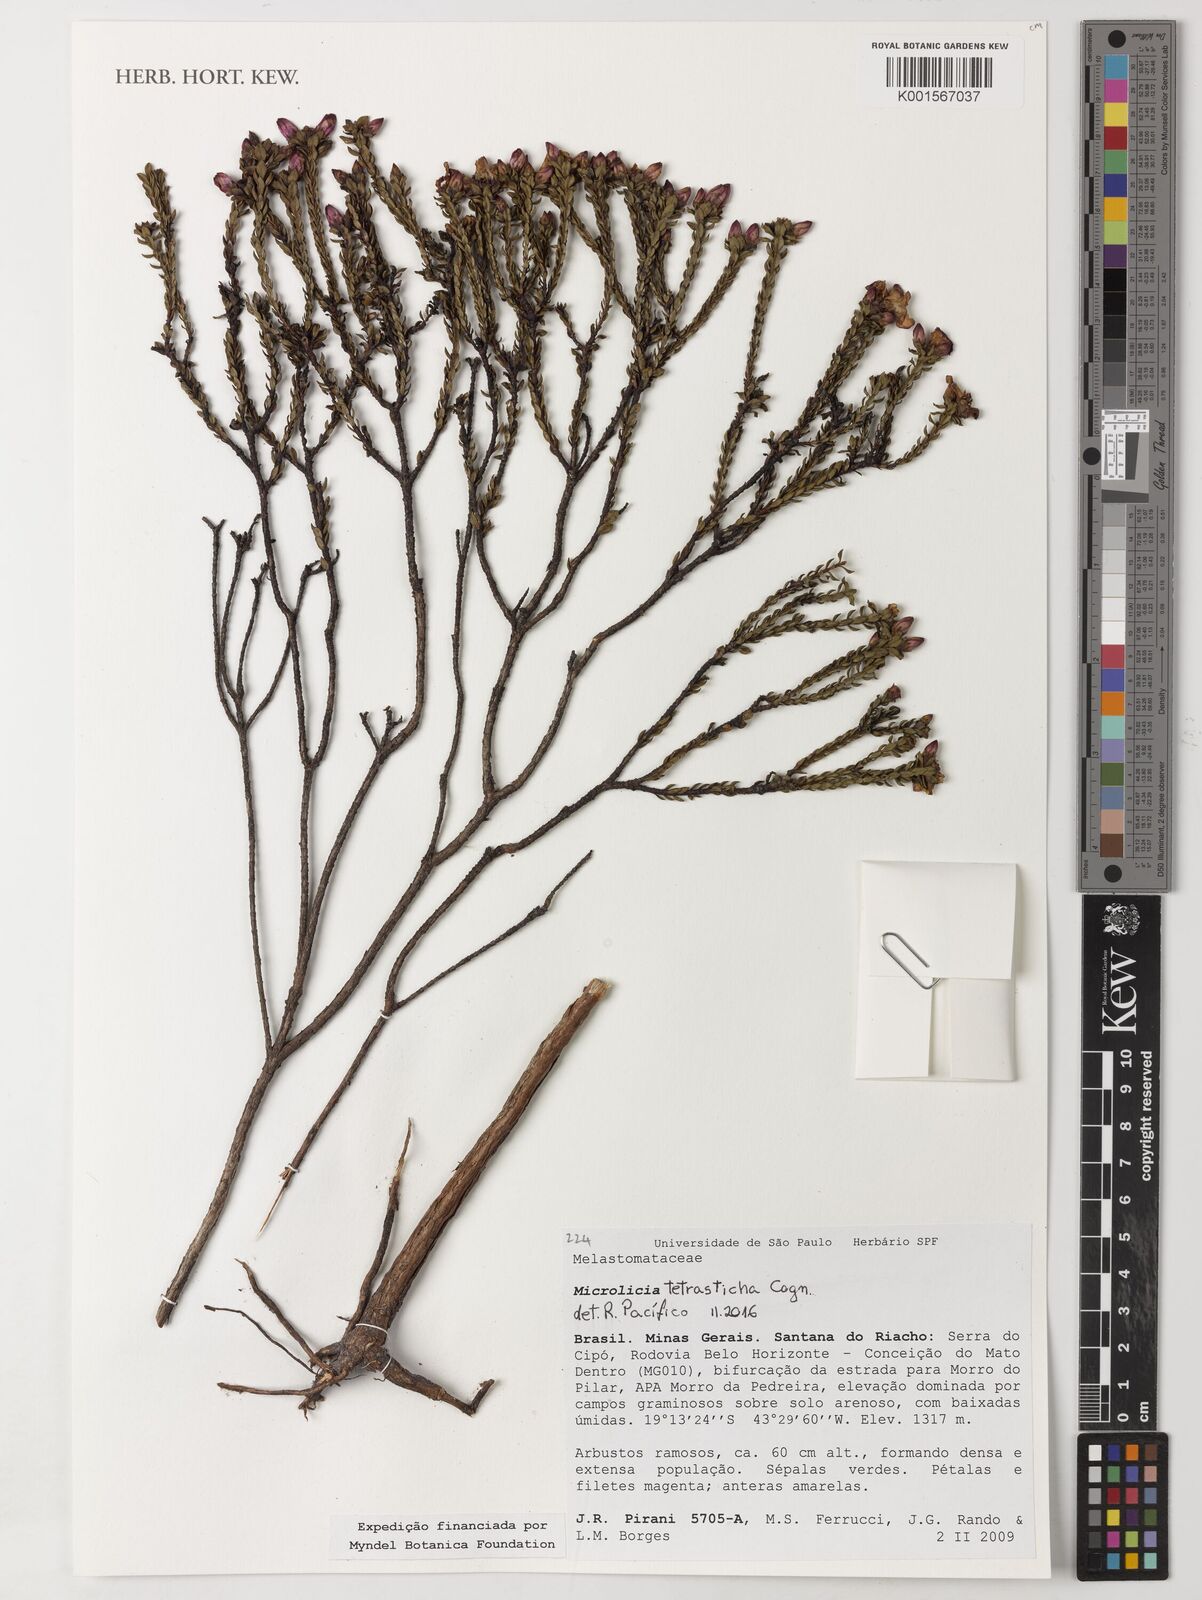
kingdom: Plantae
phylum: Tracheophyta
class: Magnoliopsida
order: Myrtales
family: Melastomataceae
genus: Microlicia
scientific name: Microlicia tetrasticha
